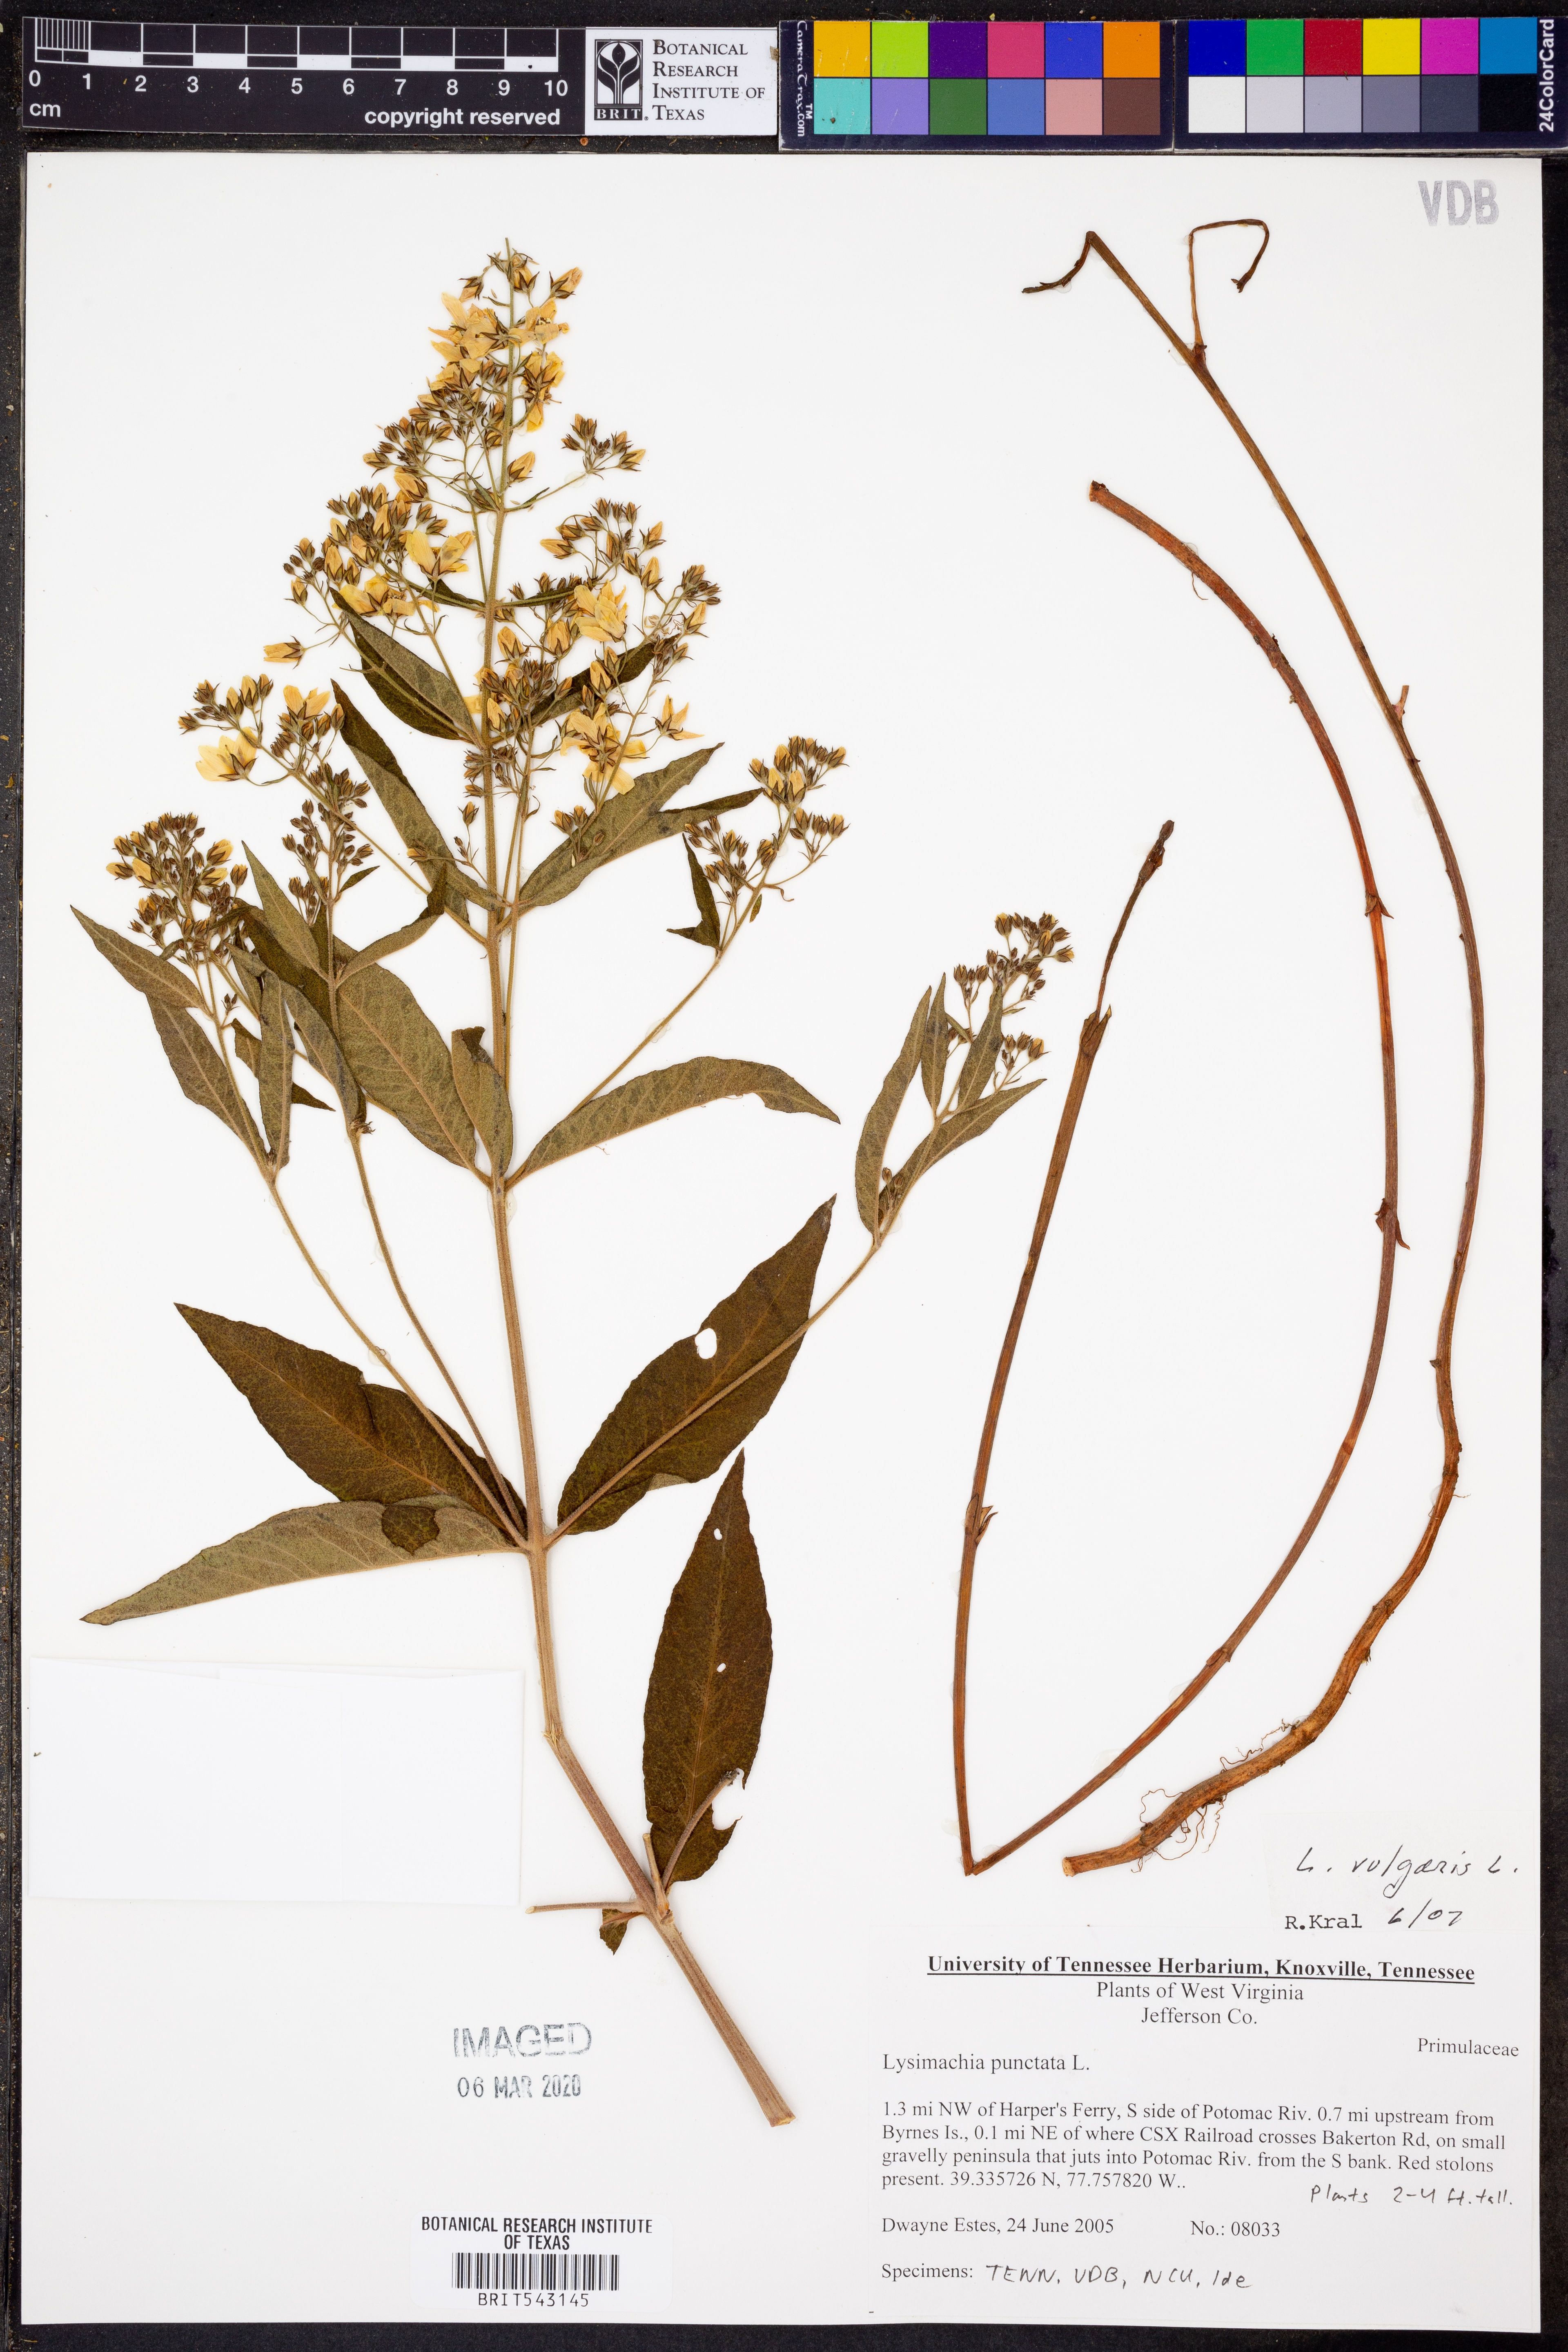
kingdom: Plantae
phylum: Tracheophyta
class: Magnoliopsida
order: Ericales
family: Primulaceae
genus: Lysimachia
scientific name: Lysimachia punctata
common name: Dotted loosestrife
